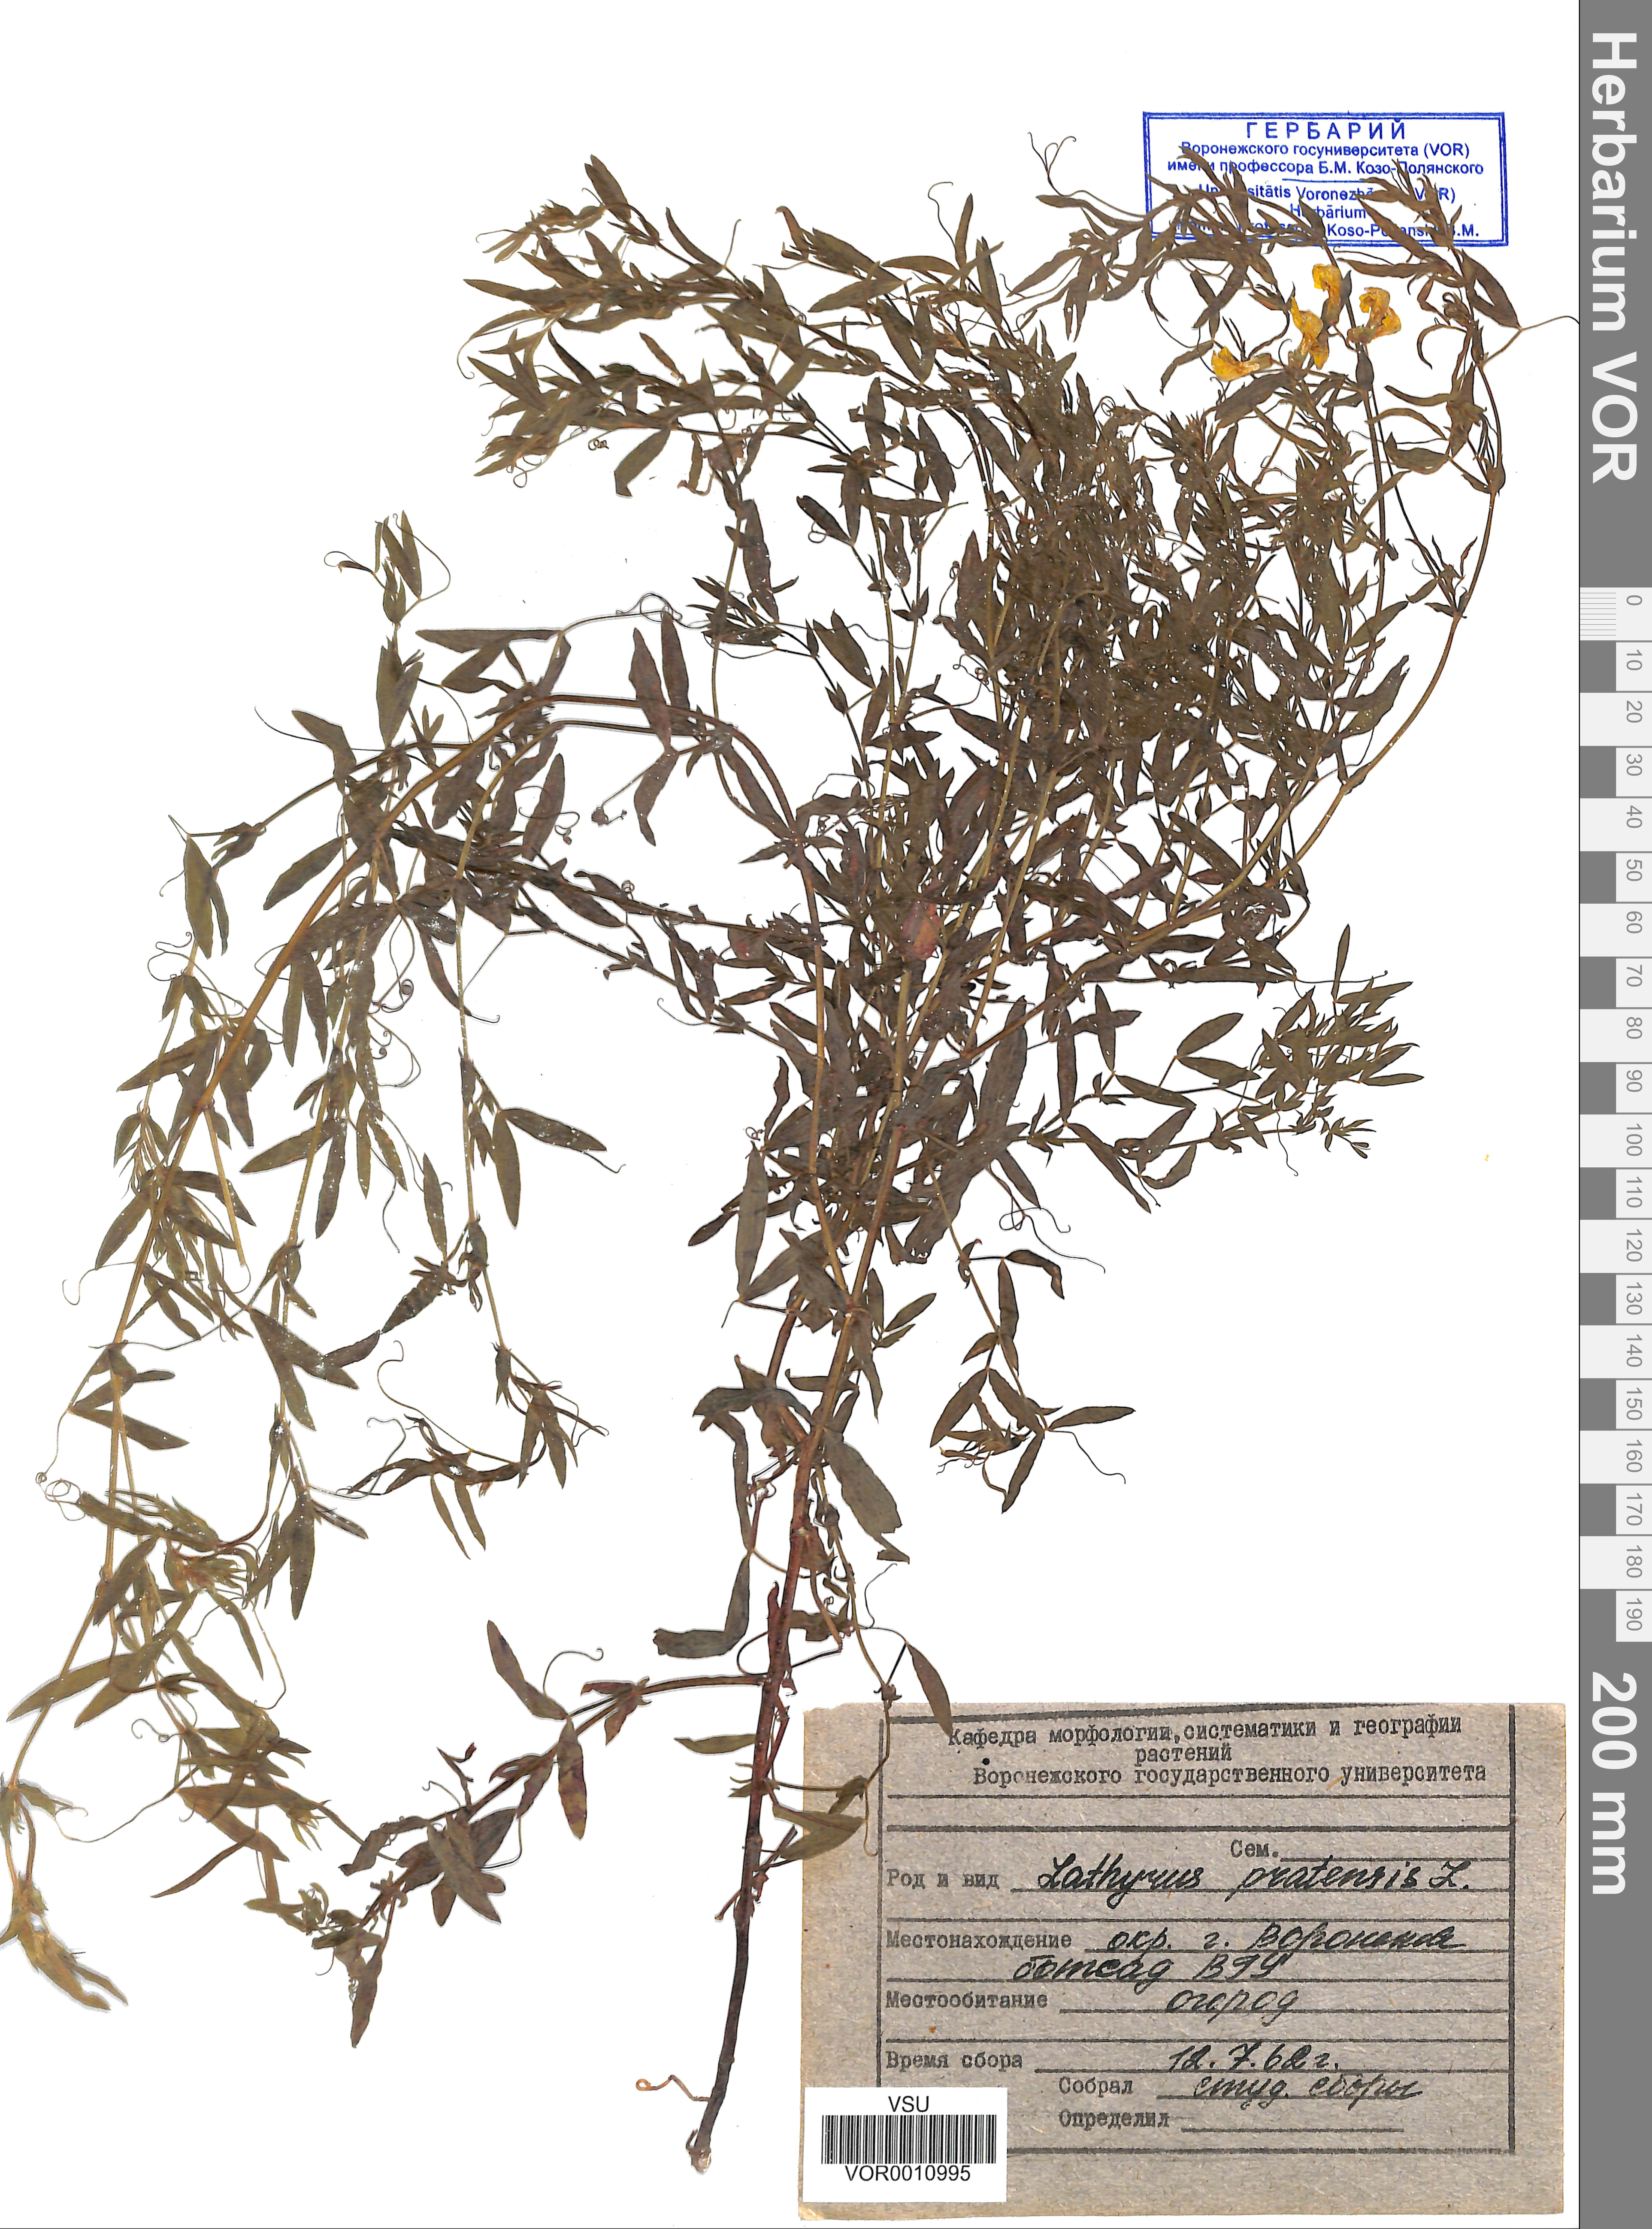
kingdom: Plantae
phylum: Tracheophyta
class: Magnoliopsida
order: Fabales
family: Fabaceae
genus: Lathyrus
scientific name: Lathyrus pratensis
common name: Meadow vetchling
